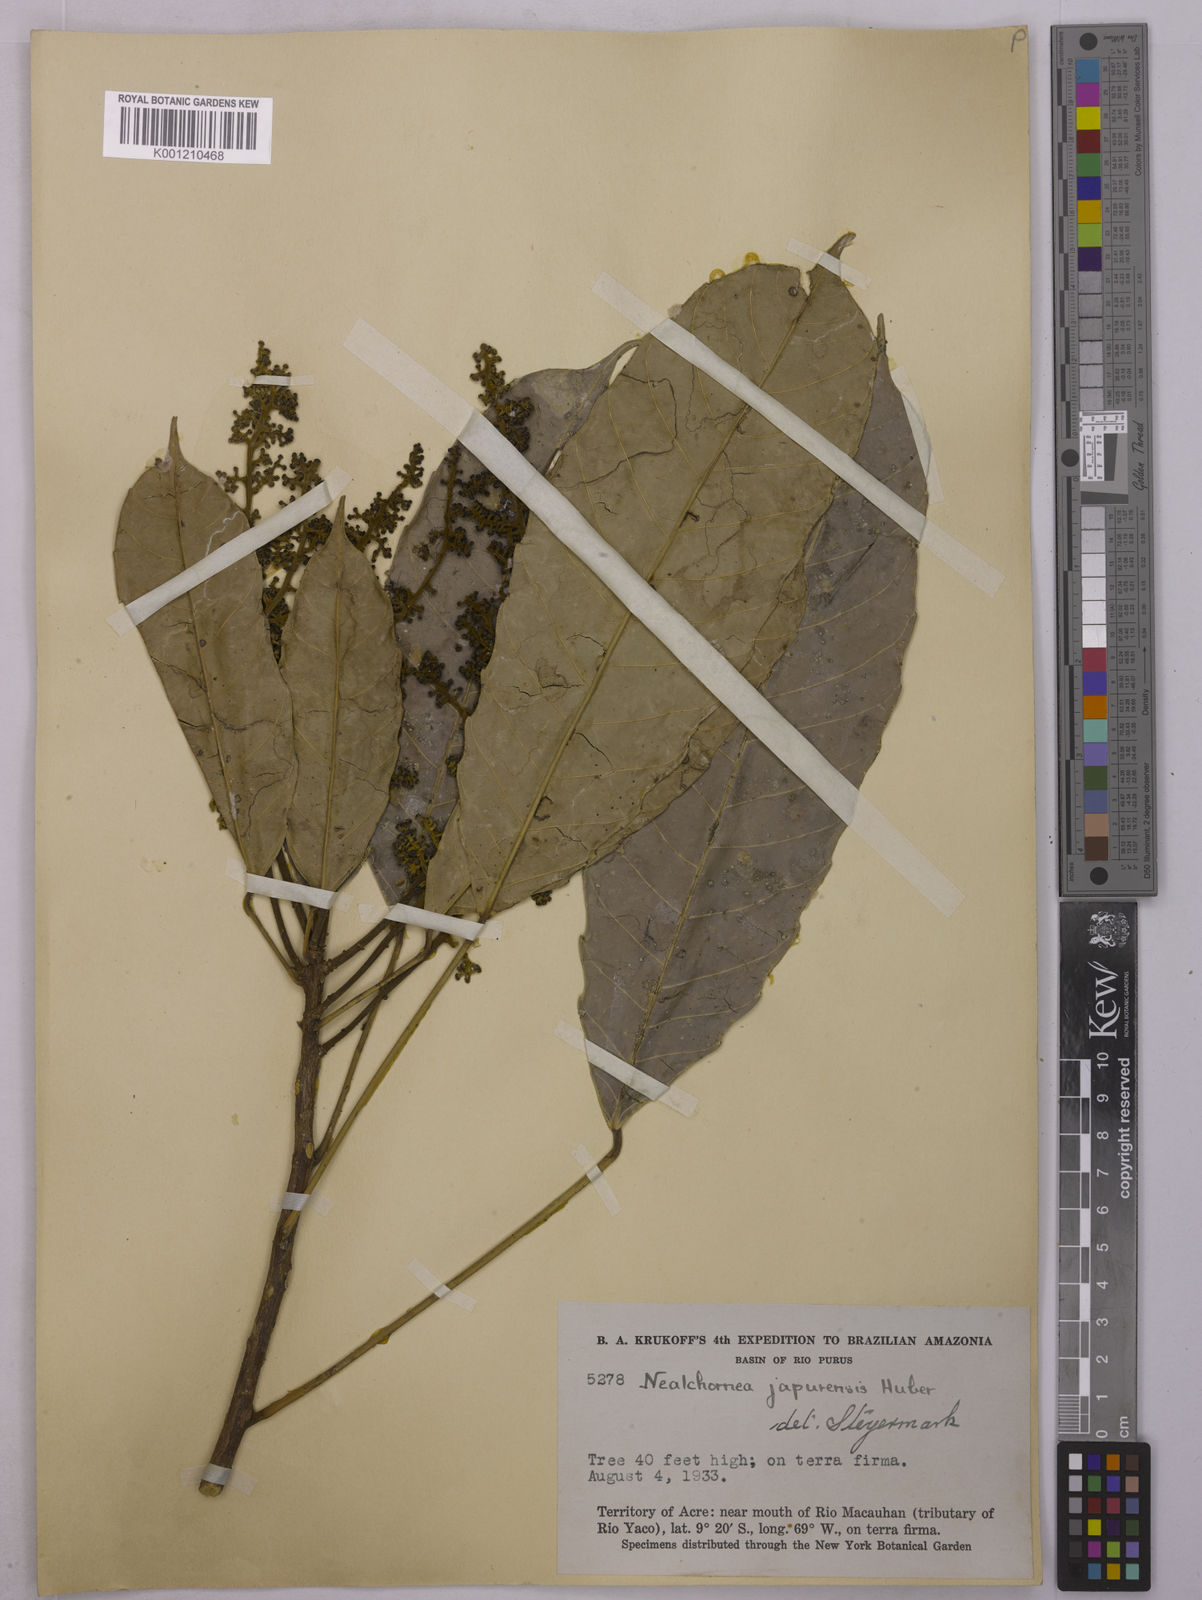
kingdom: Plantae
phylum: Tracheophyta
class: Magnoliopsida
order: Malpighiales
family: Euphorbiaceae
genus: Nealchornea
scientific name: Nealchornea yapurensis
